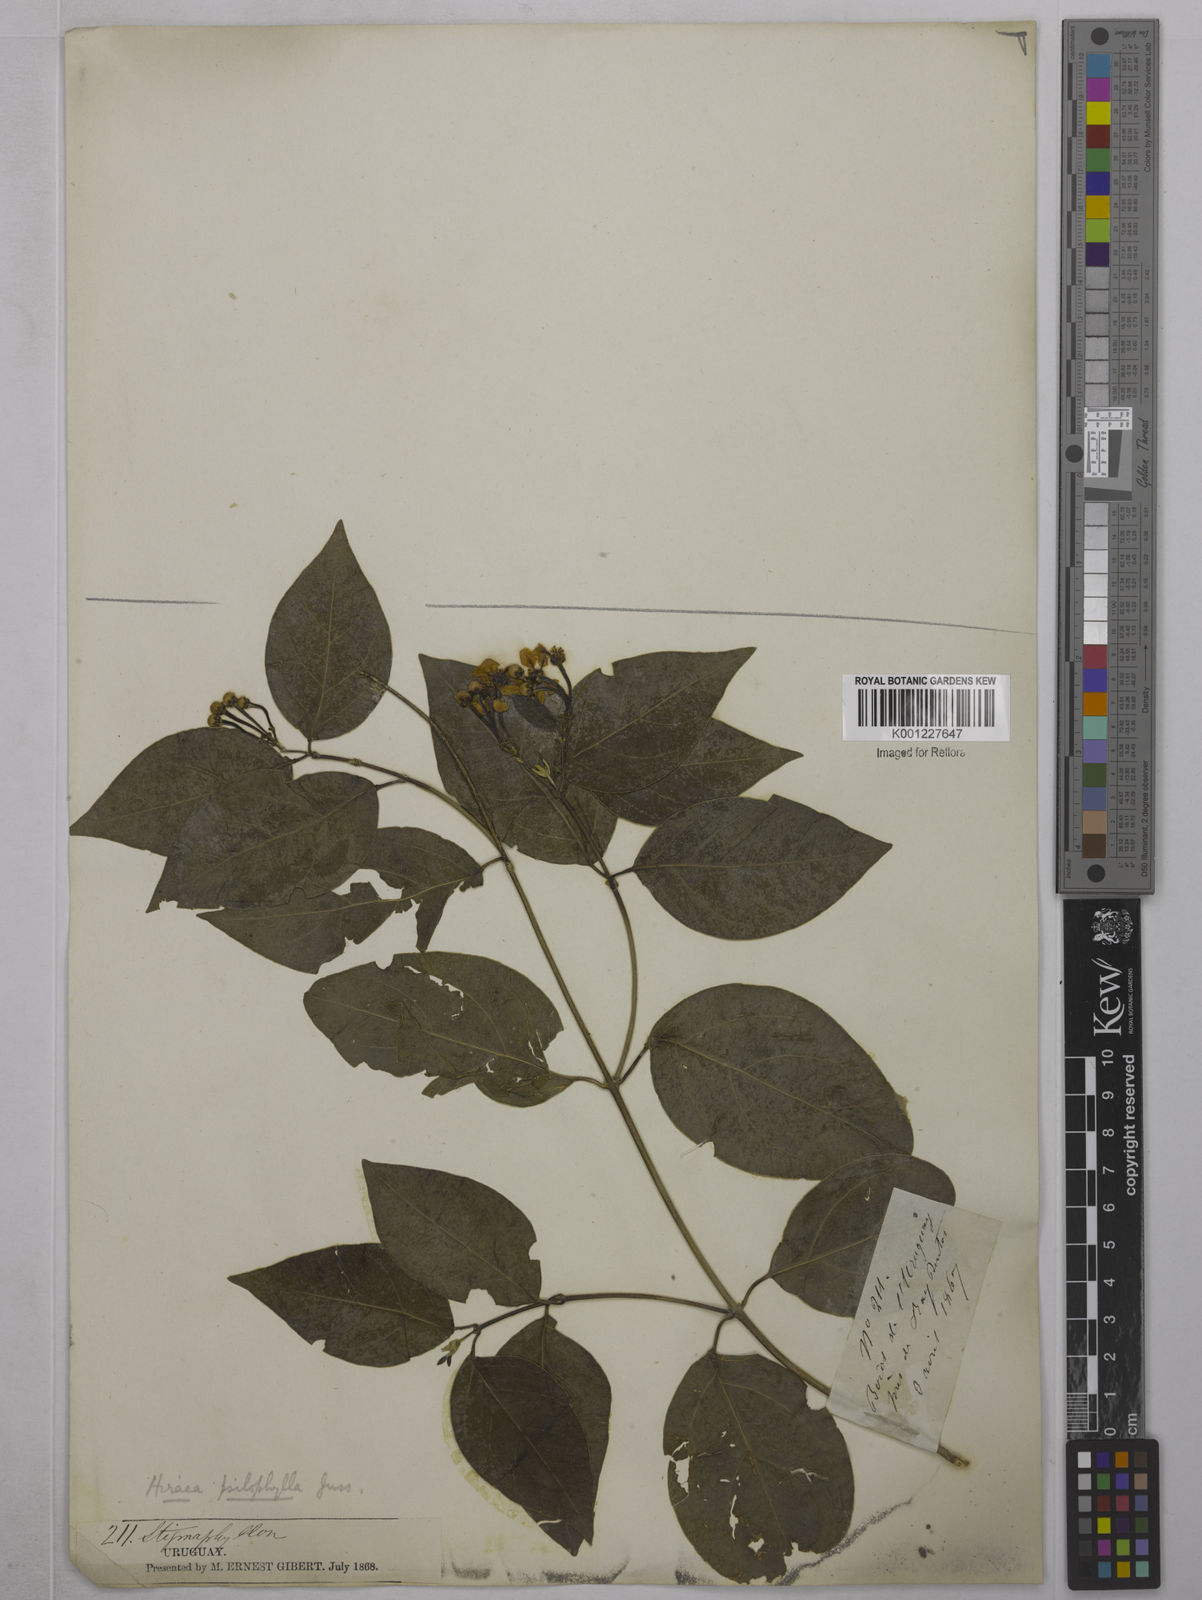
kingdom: Plantae
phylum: Tracheophyta
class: Magnoliopsida
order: Malpighiales
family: Malpighiaceae
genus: Callaeum
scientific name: Callaeum psilophyllum
